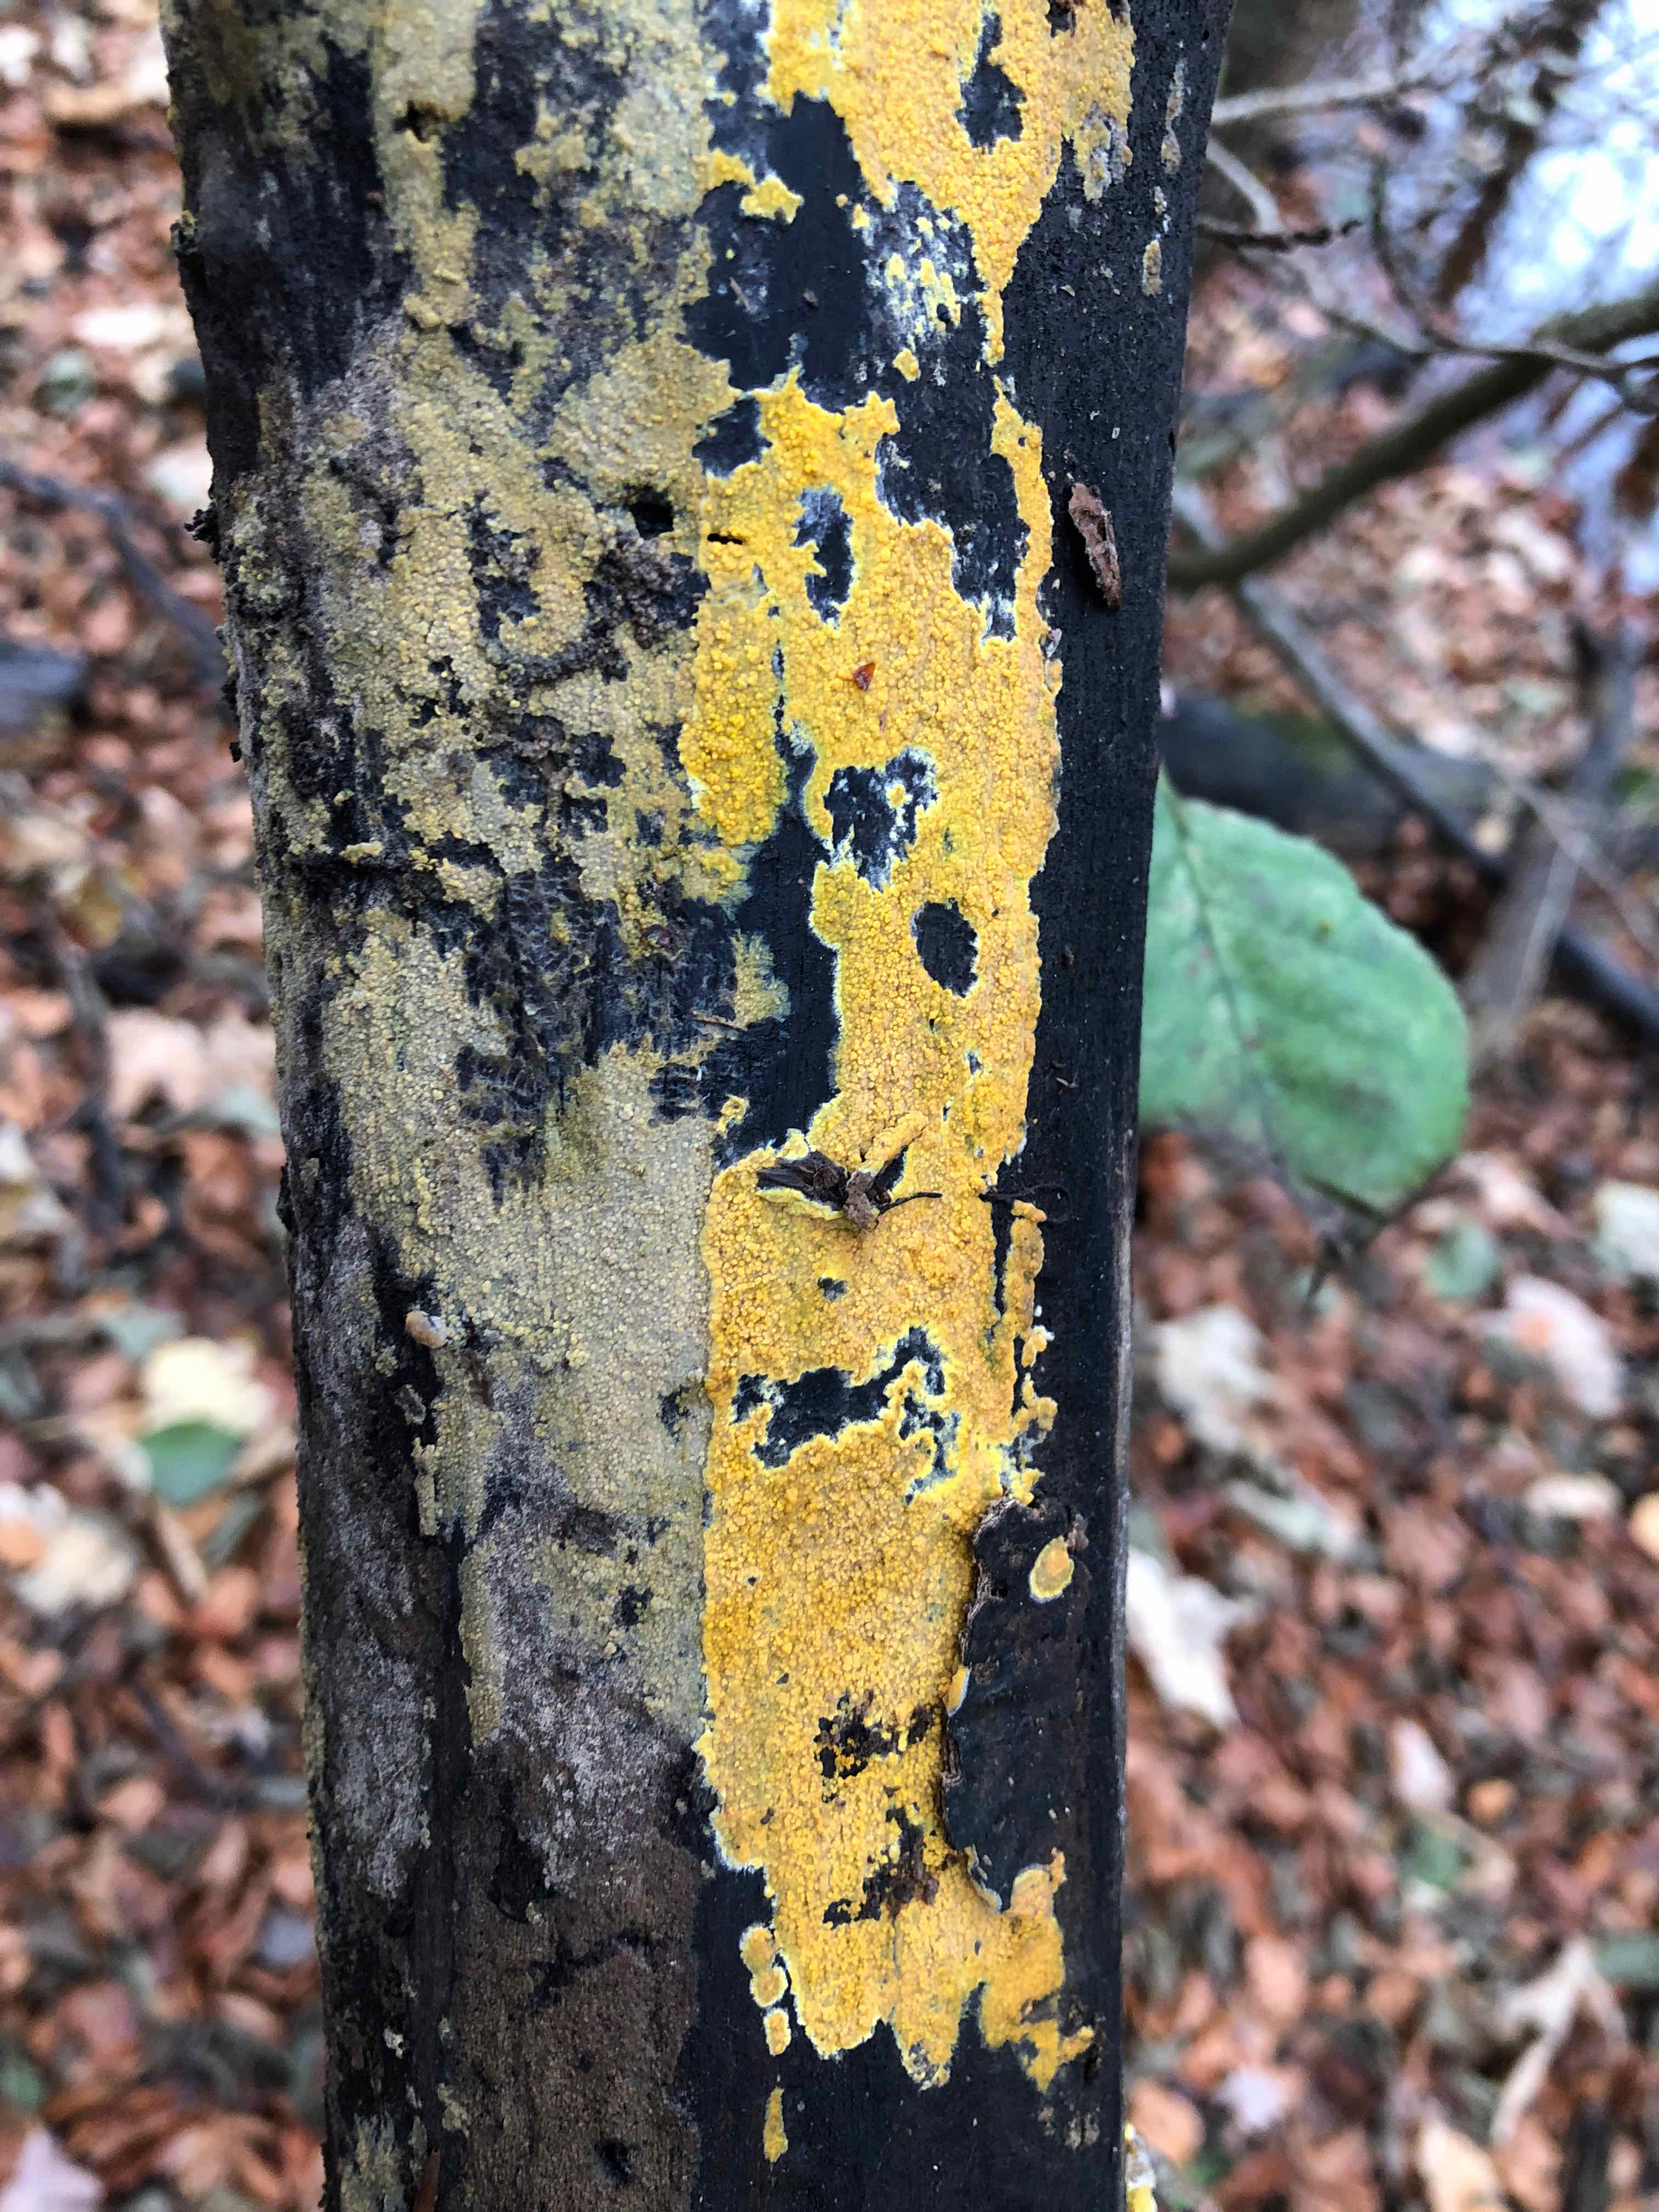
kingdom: Fungi
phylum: Basidiomycota
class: Agaricomycetes
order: Polyporales
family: Meruliaceae
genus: Phlebiodontia
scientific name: Phlebiodontia subochracea
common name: svovl-åresvamp
